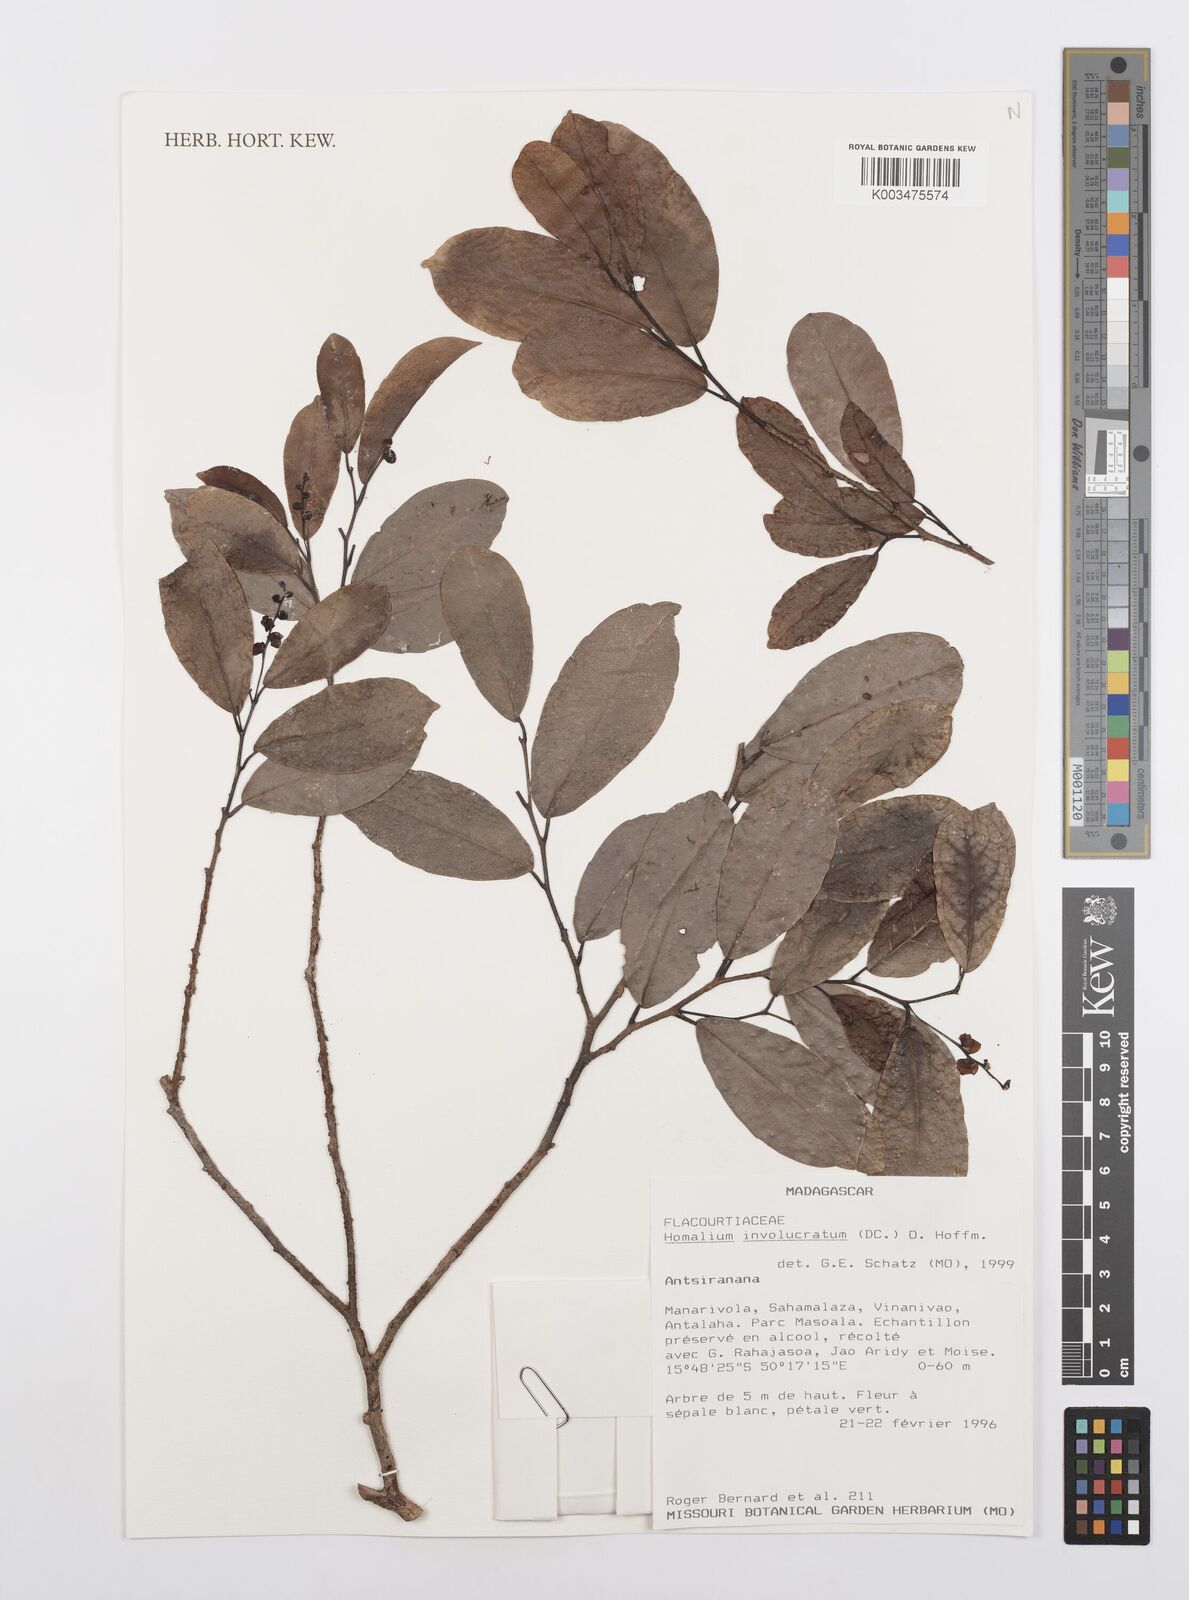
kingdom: Plantae
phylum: Tracheophyta
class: Magnoliopsida
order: Malpighiales
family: Salicaceae
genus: Homalium
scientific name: Homalium involucratum
